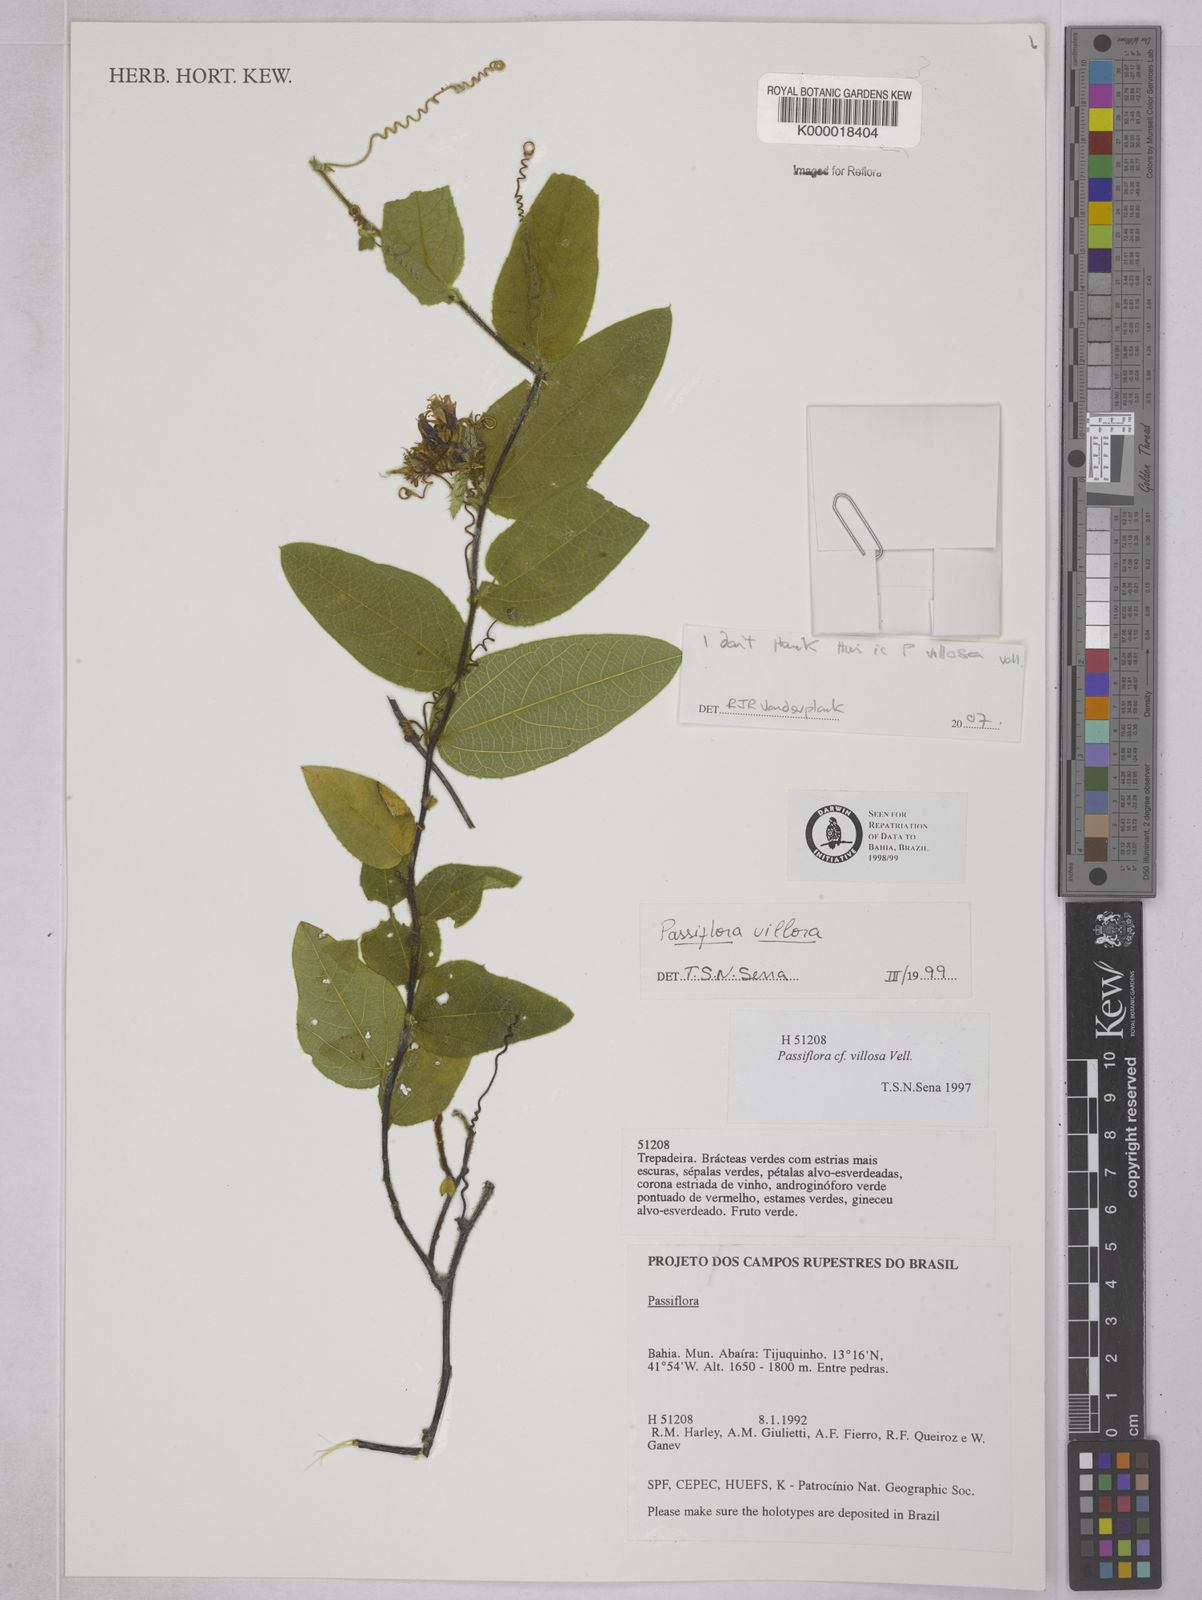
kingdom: Plantae
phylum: Tracheophyta
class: Magnoliopsida
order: Malpighiales
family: Passifloraceae
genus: Passiflora
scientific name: Passiflora villosa
